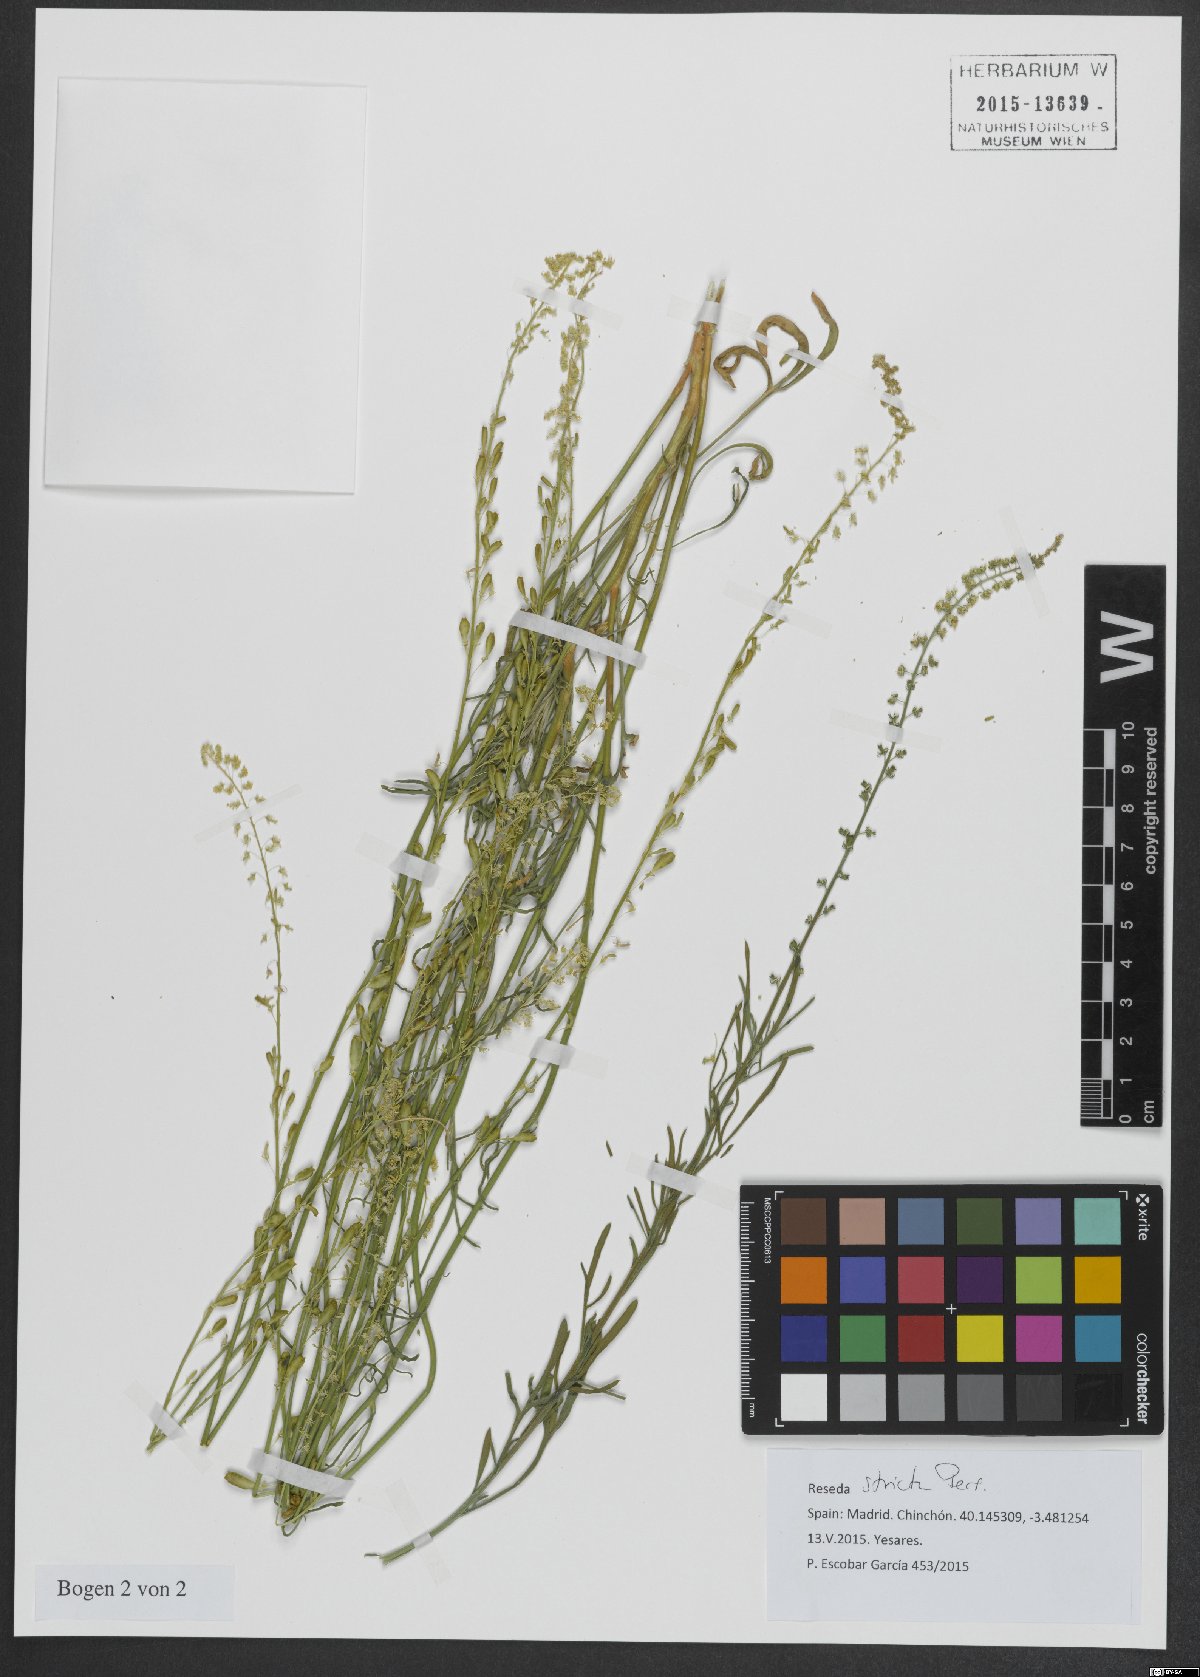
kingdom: Plantae
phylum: Tracheophyta
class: Magnoliopsida
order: Brassicales
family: Resedaceae
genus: Reseda
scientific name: Reseda stricta
